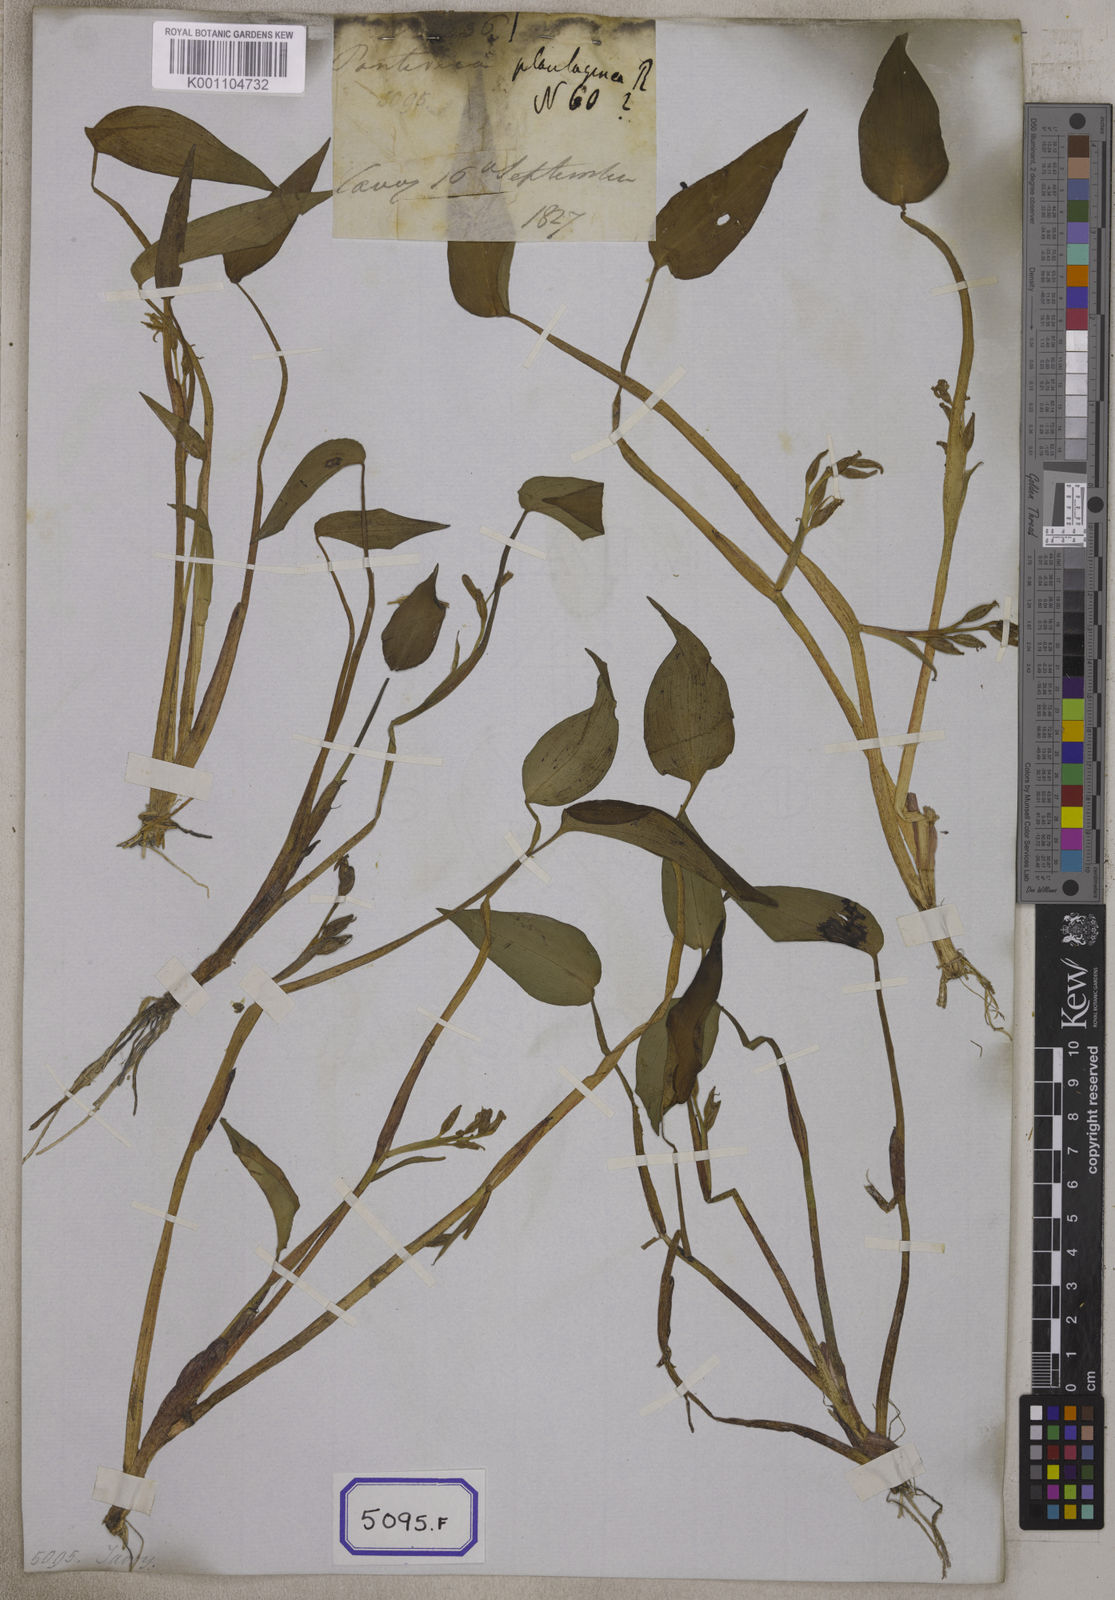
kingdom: Plantae
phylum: Tracheophyta
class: Liliopsida
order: Commelinales
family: Pontederiaceae
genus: Pontederia
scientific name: Pontederia
